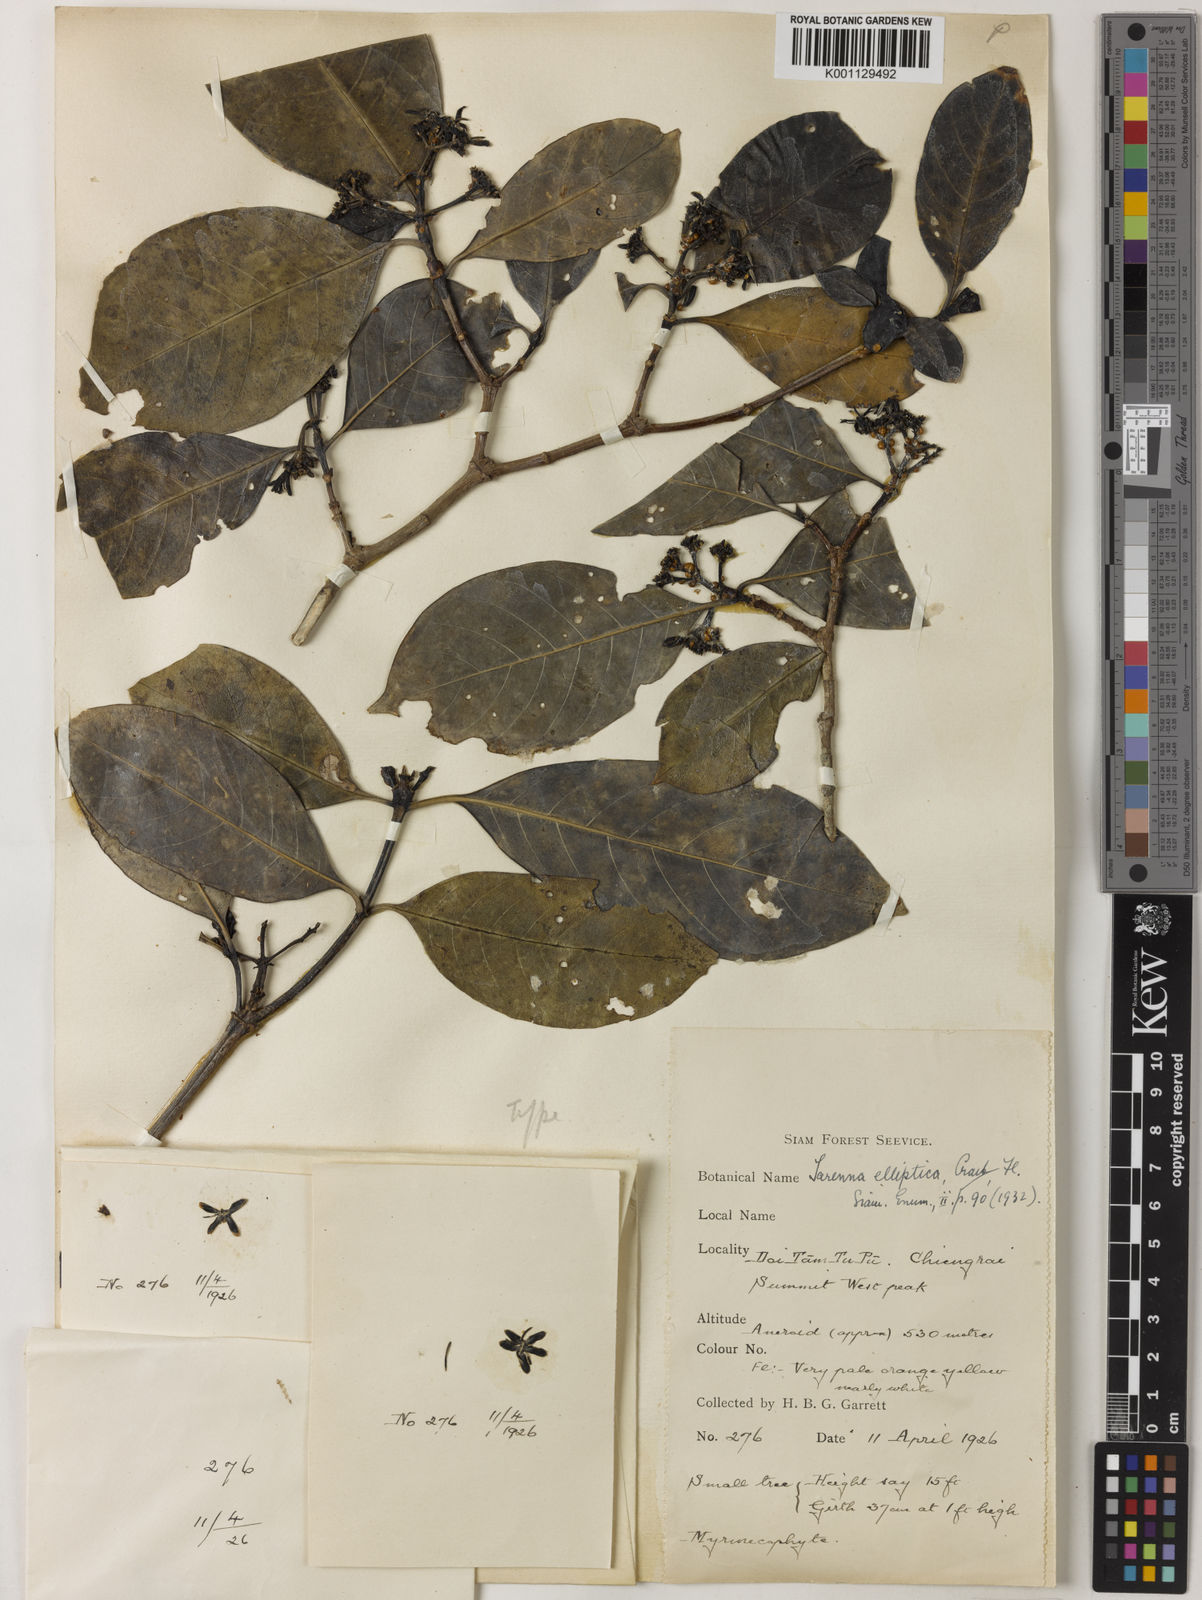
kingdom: Plantae
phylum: Tracheophyta
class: Magnoliopsida
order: Gentianales
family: Rubiaceae
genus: Tarenna
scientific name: Tarenna collinsiae
